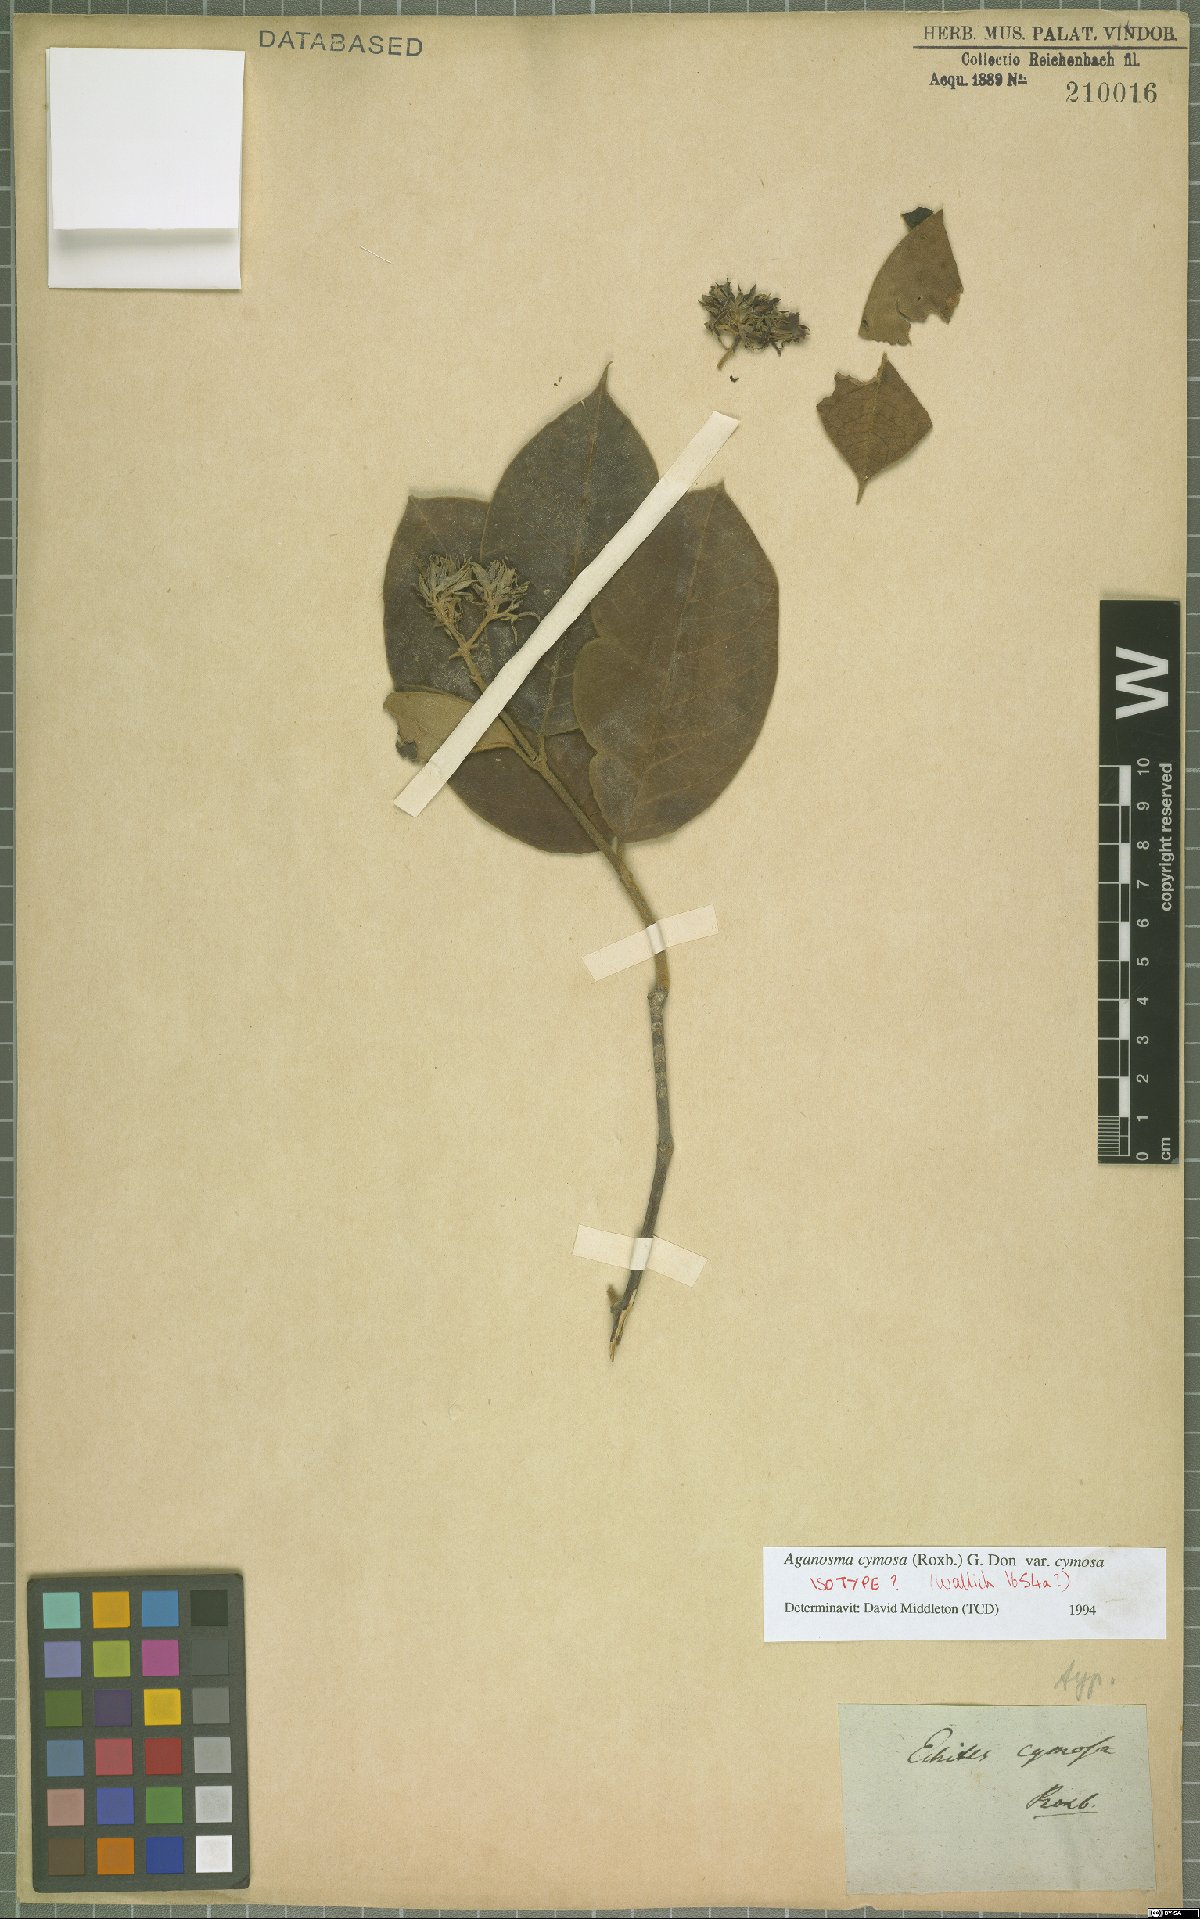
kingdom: Plantae
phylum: Tracheophyta
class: Magnoliopsida
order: Gentianales
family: Apocynaceae
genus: Aganosma
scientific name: Aganosma cymosa
